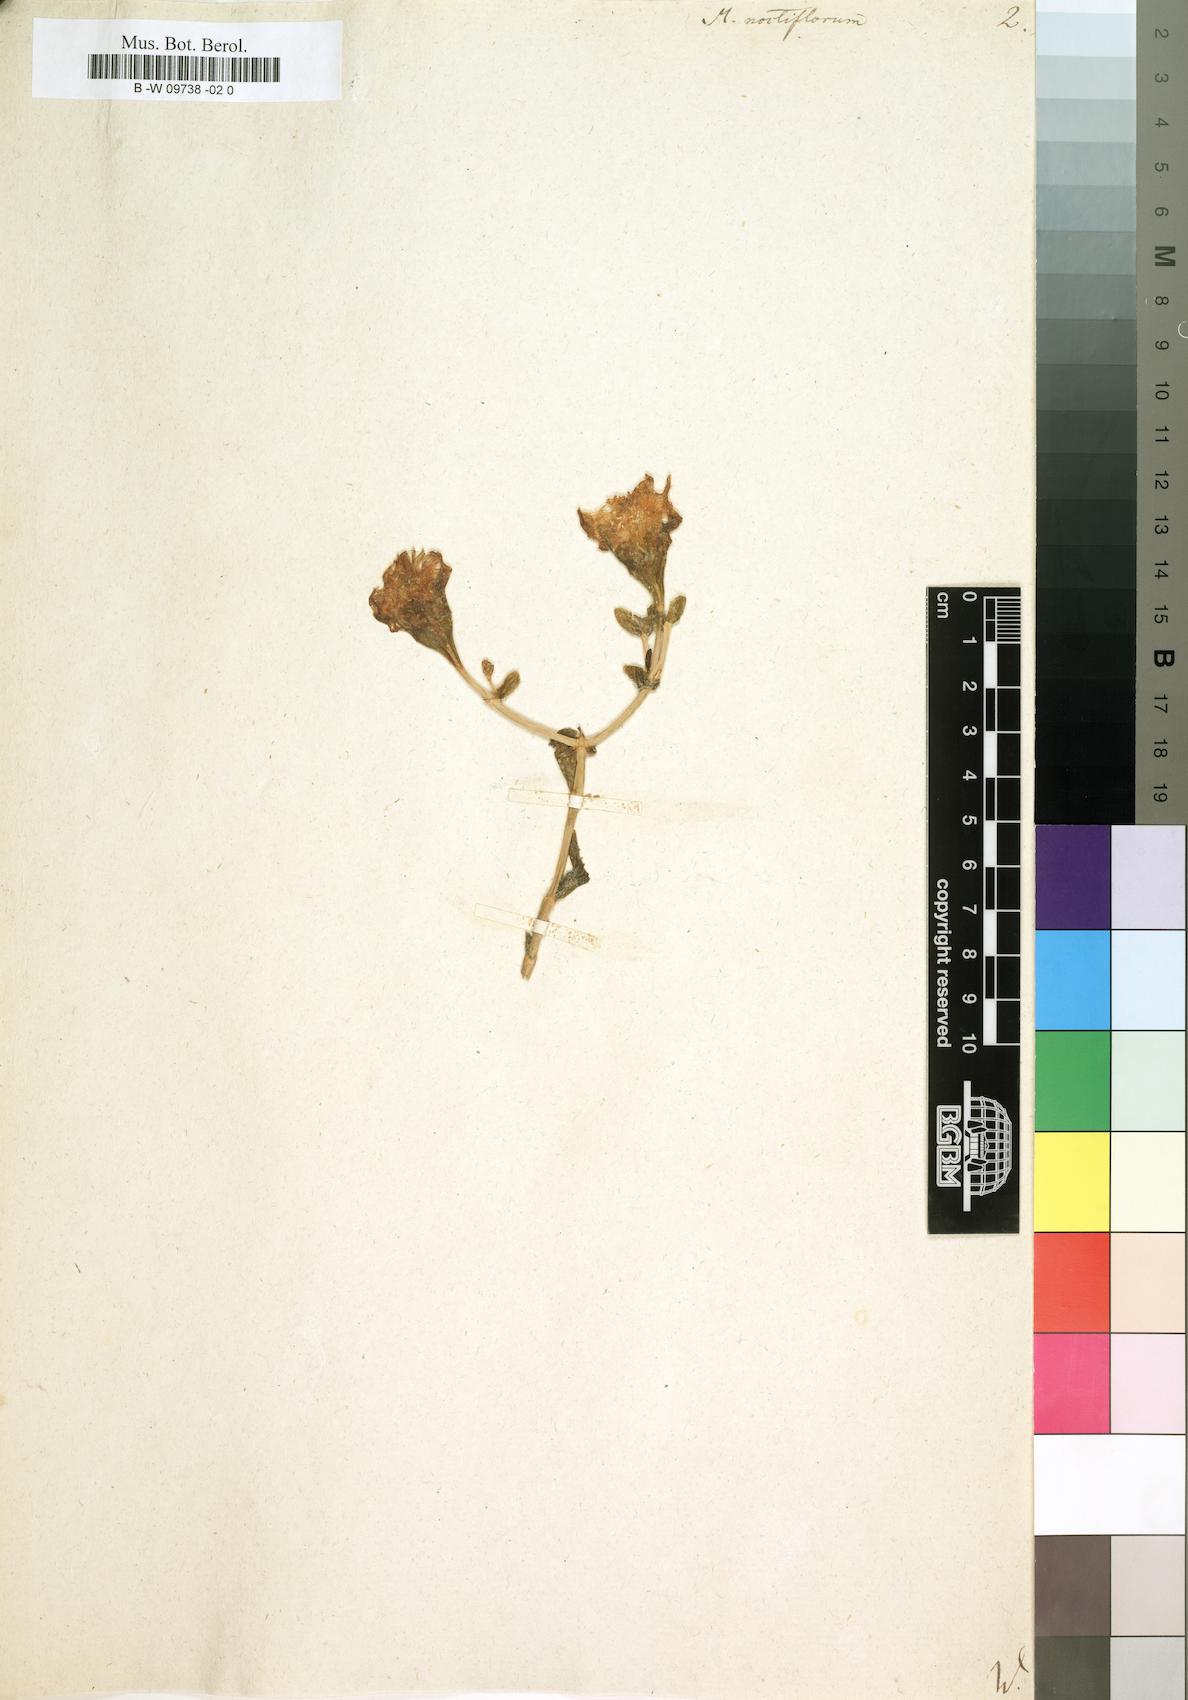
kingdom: Plantae
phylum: Tracheophyta
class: Magnoliopsida
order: Caryophyllales
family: Aizoaceae
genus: Mesembryanthemum
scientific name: Mesembryanthemum noctiflorum
